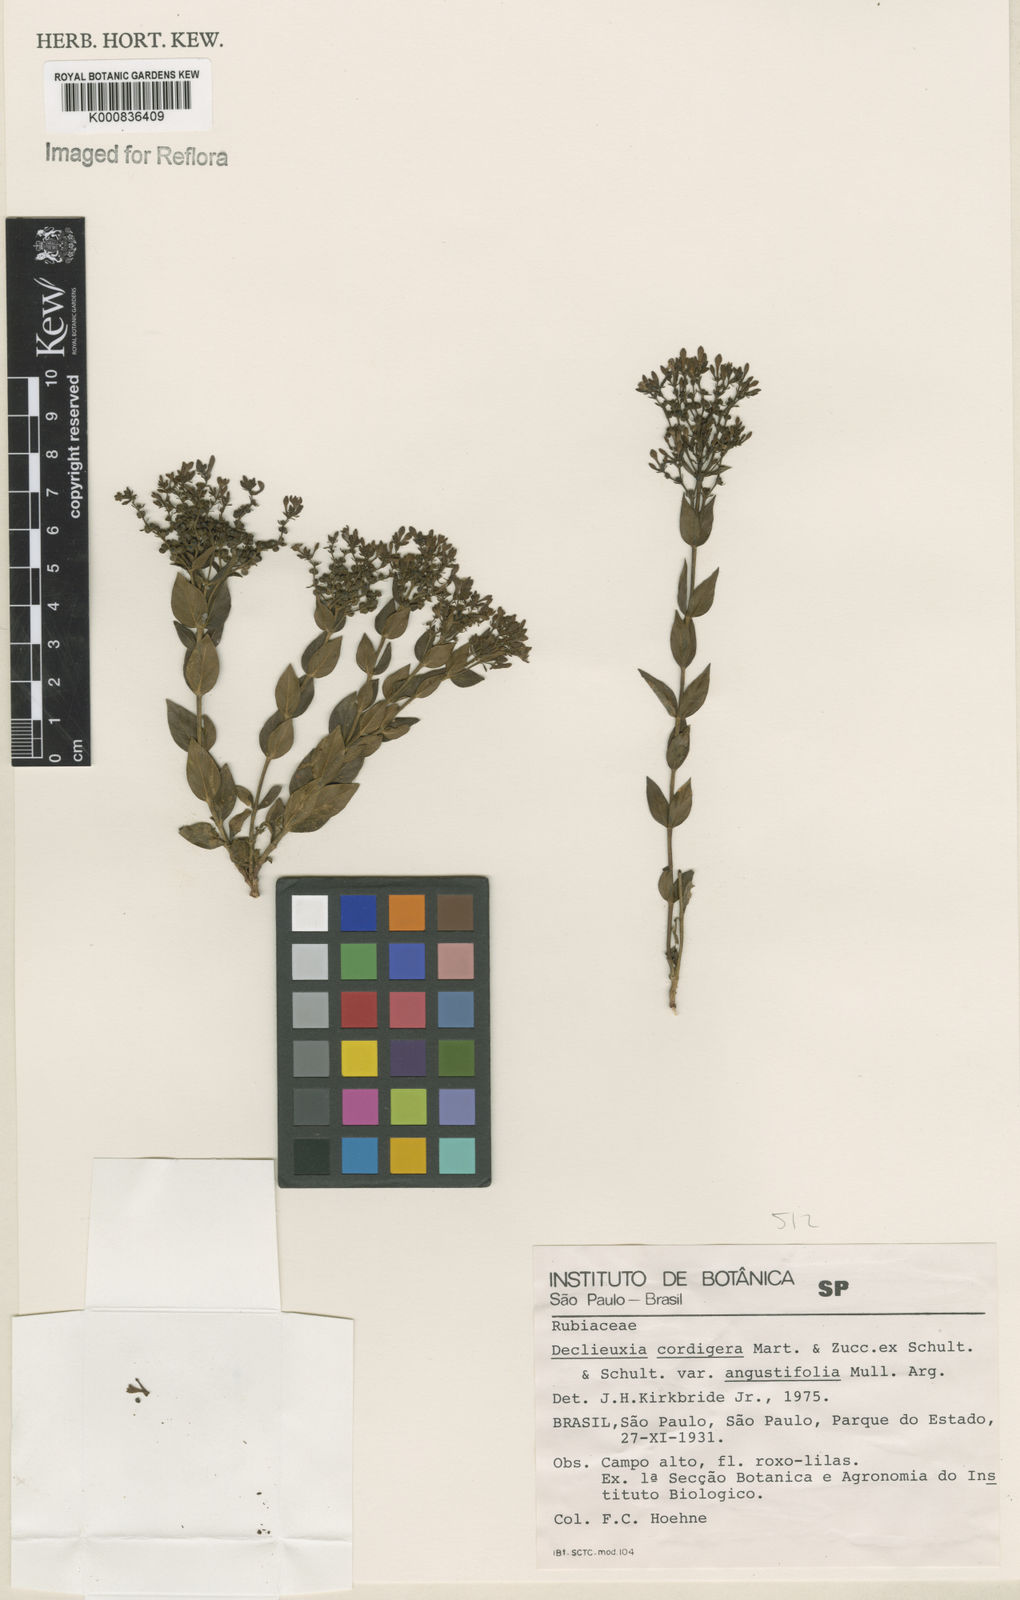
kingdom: Plantae
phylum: Tracheophyta
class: Magnoliopsida
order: Gentianales
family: Rubiaceae
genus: Declieuxia
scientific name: Declieuxia
